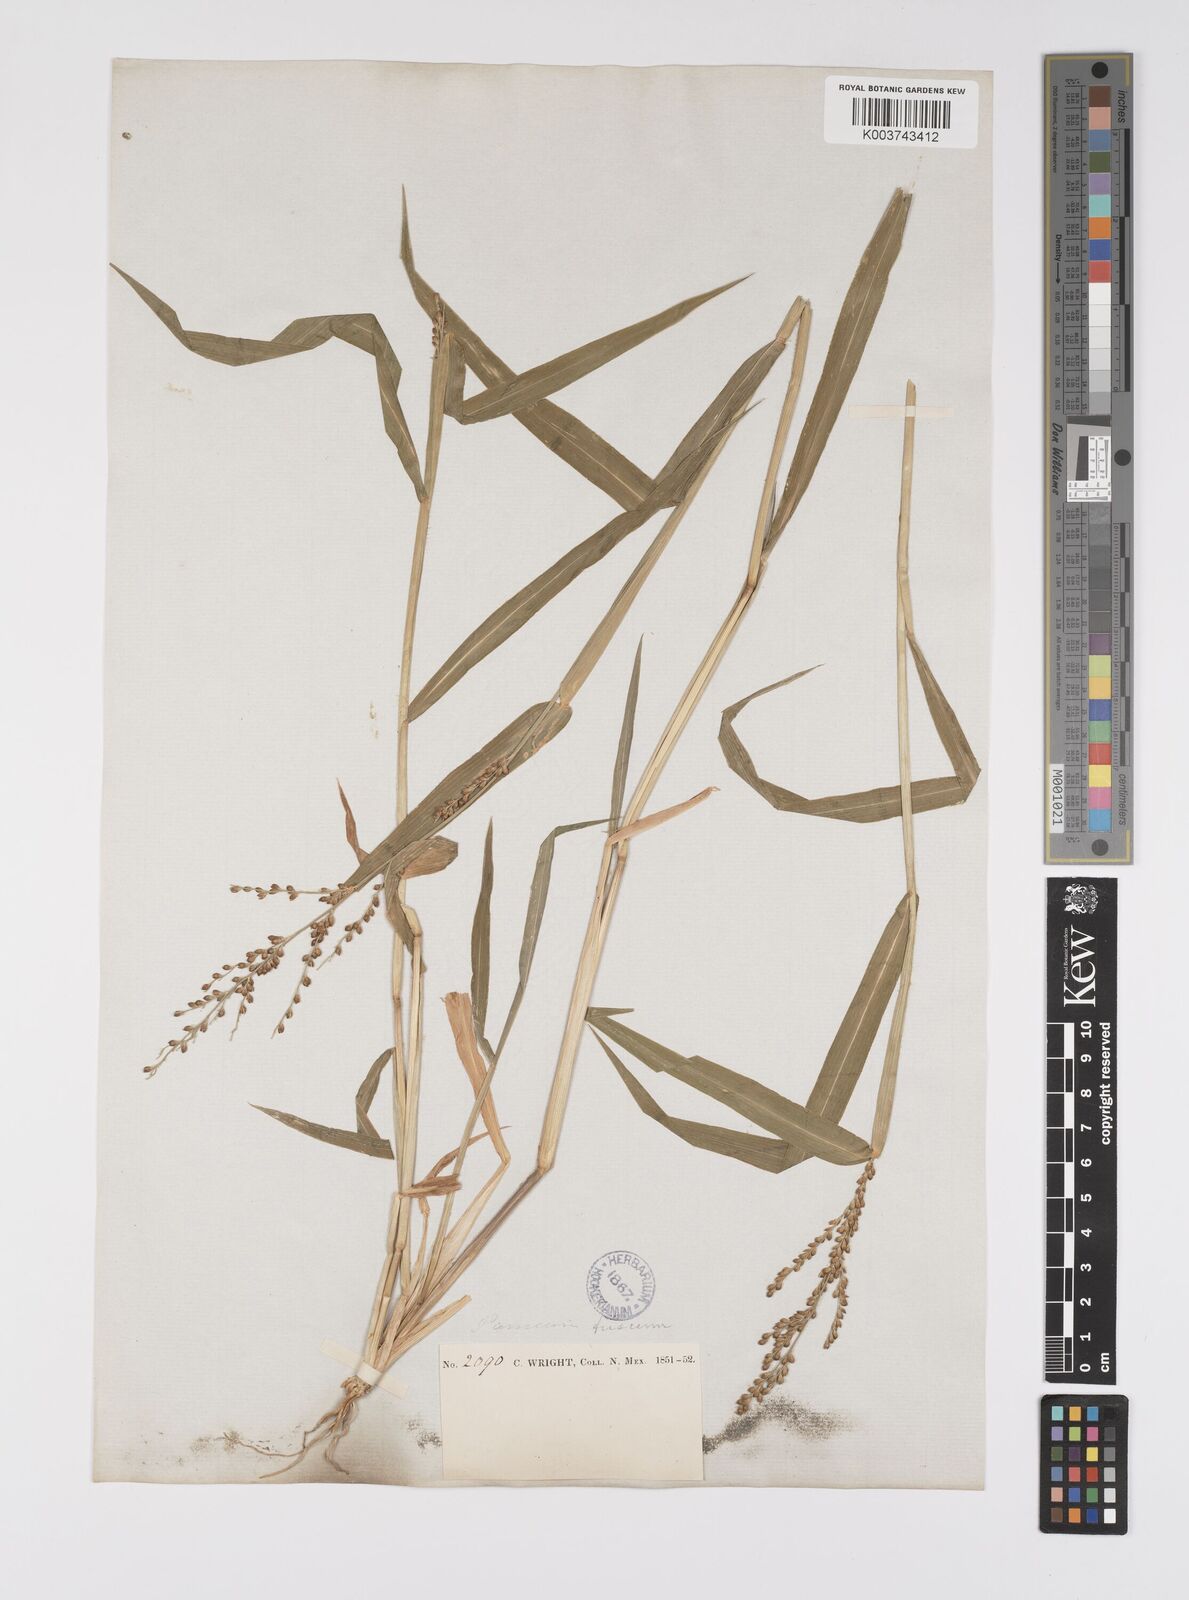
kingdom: Plantae
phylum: Tracheophyta
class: Liliopsida
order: Poales
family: Poaceae
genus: Urochloa
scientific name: Urochloa fusca
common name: Browntop signal grass
